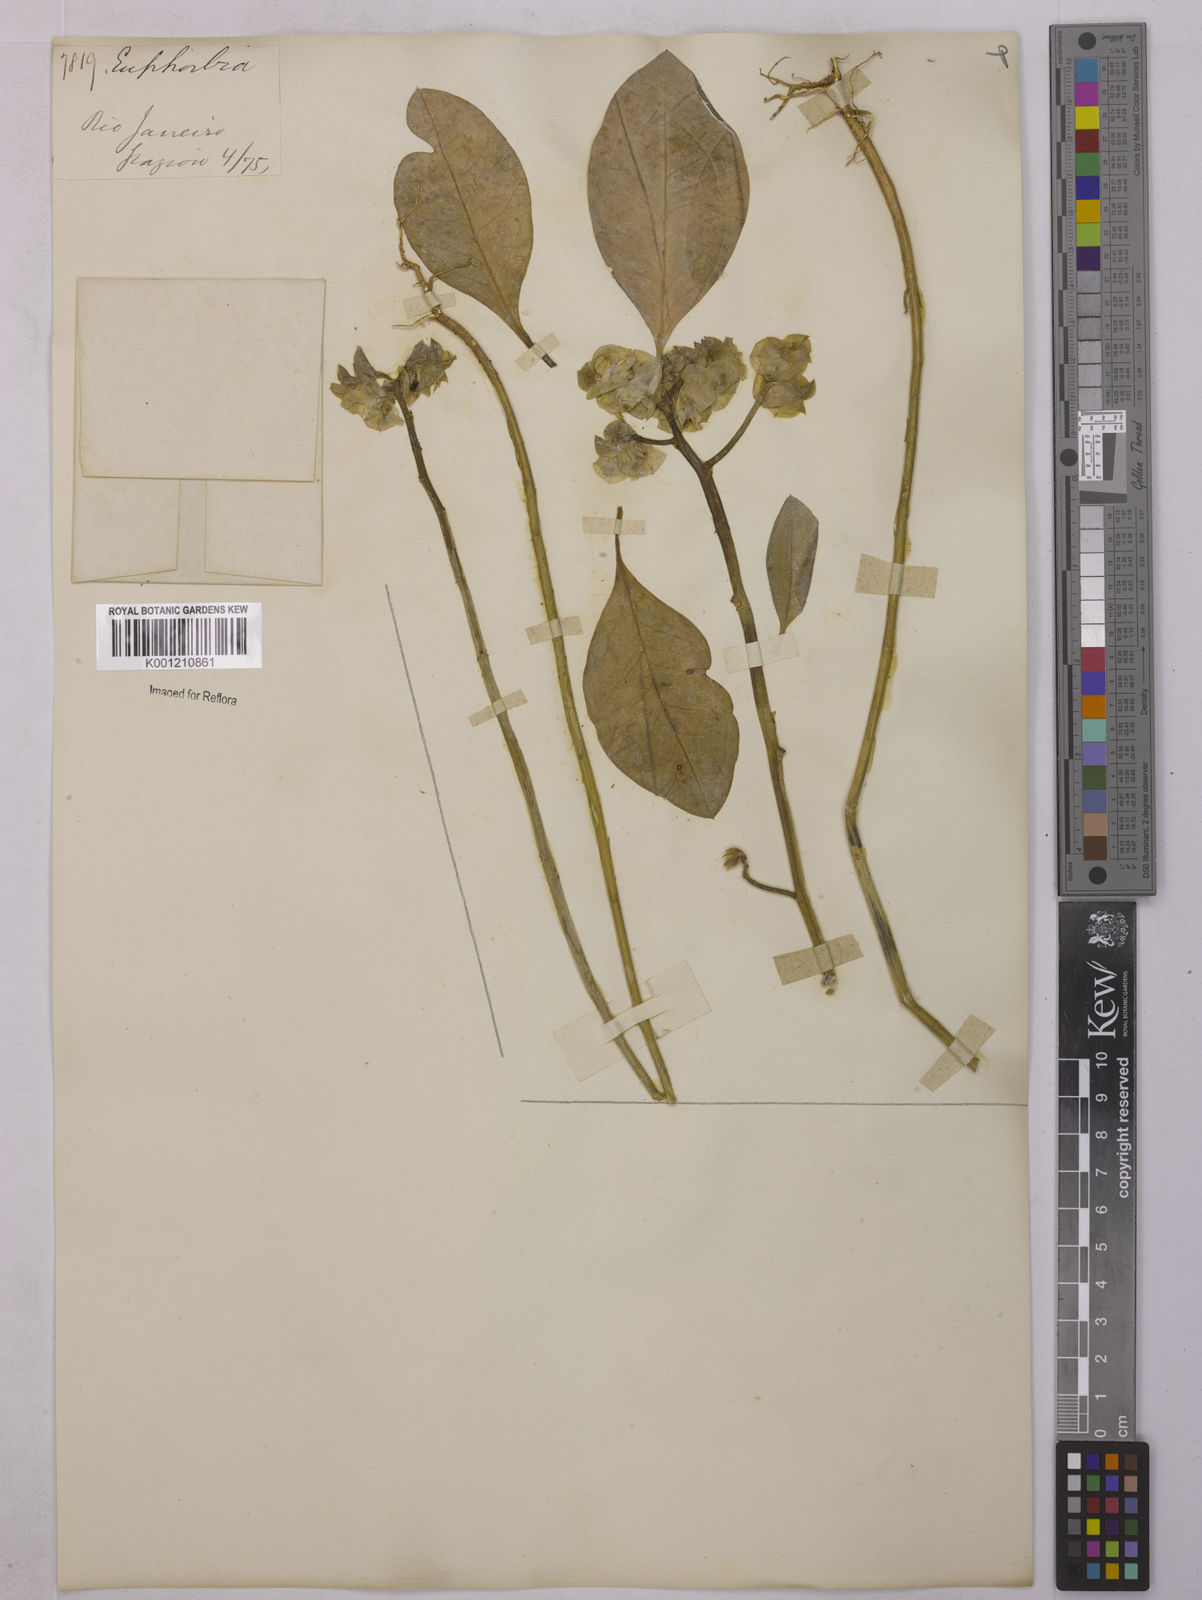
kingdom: Plantae
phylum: Tracheophyta
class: Magnoliopsida
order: Malpighiales
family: Euphorbiaceae
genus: Euphorbia
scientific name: Euphorbia comosa
